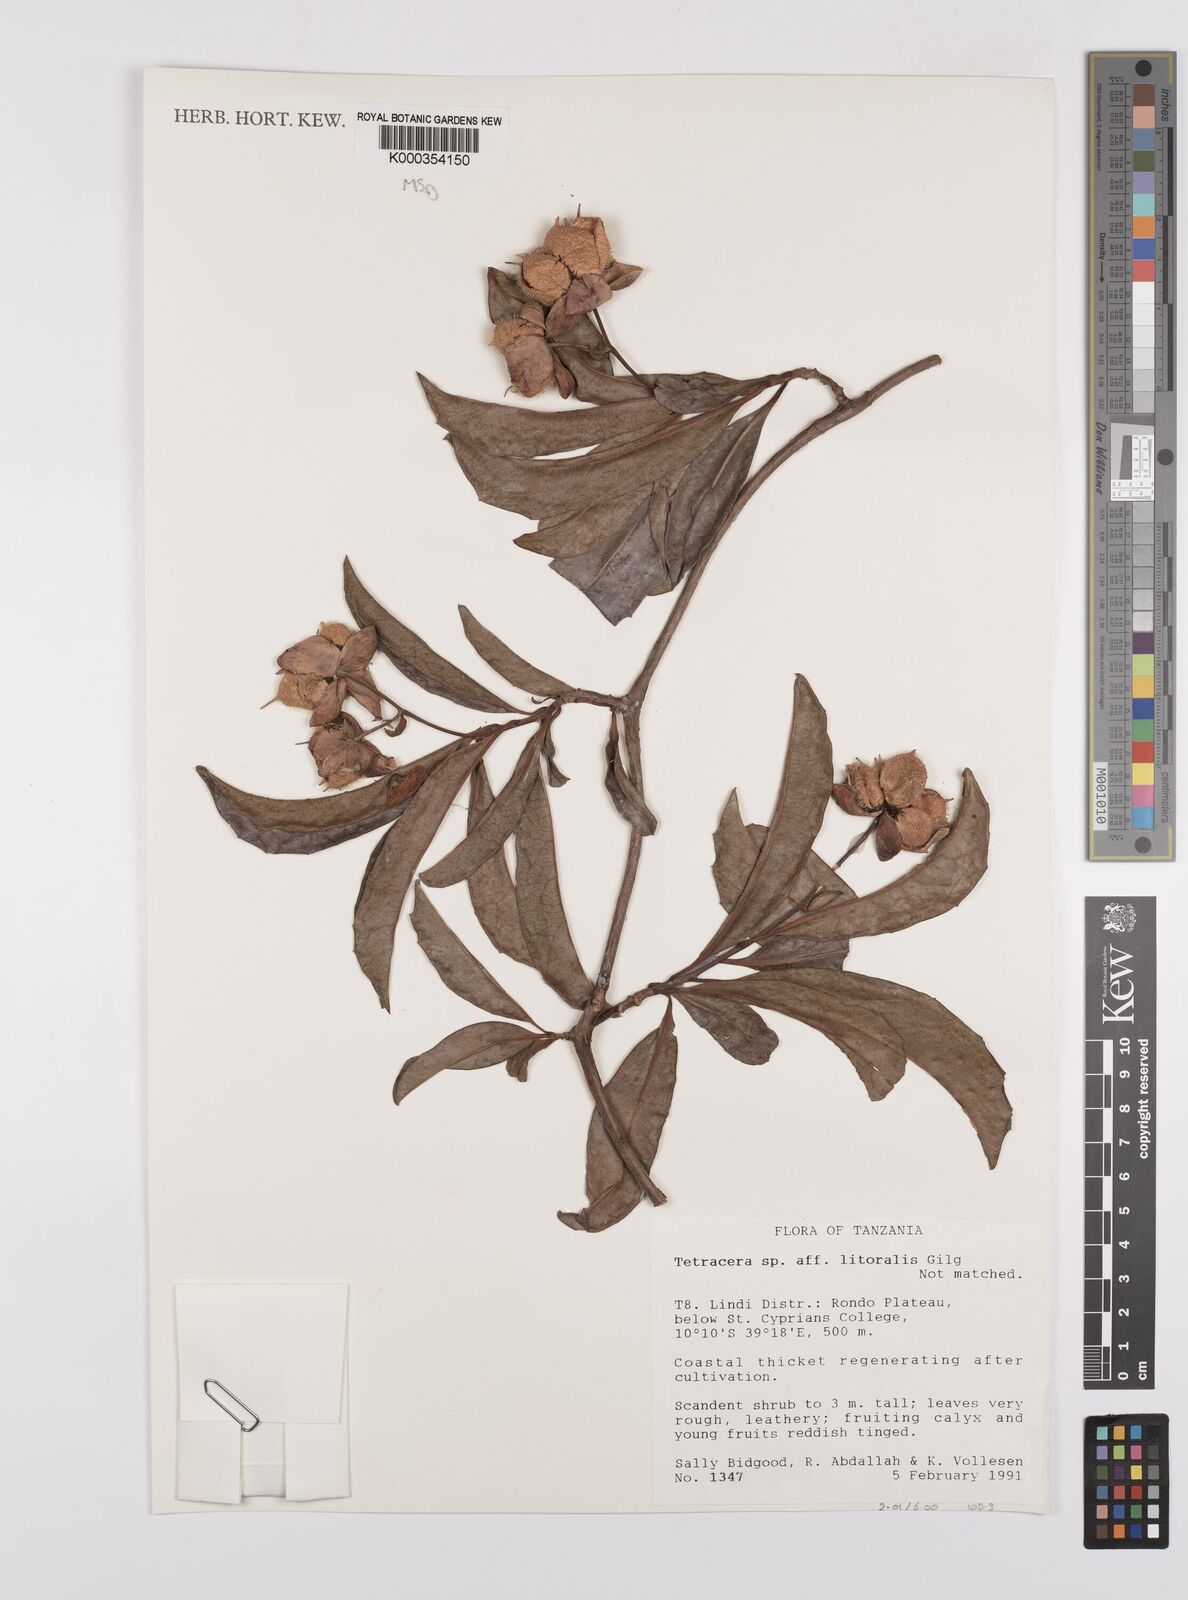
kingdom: Plantae
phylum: Tracheophyta
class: Magnoliopsida
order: Dilleniales
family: Dilleniaceae
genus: Tetracera
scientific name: Tetracera litoralis
